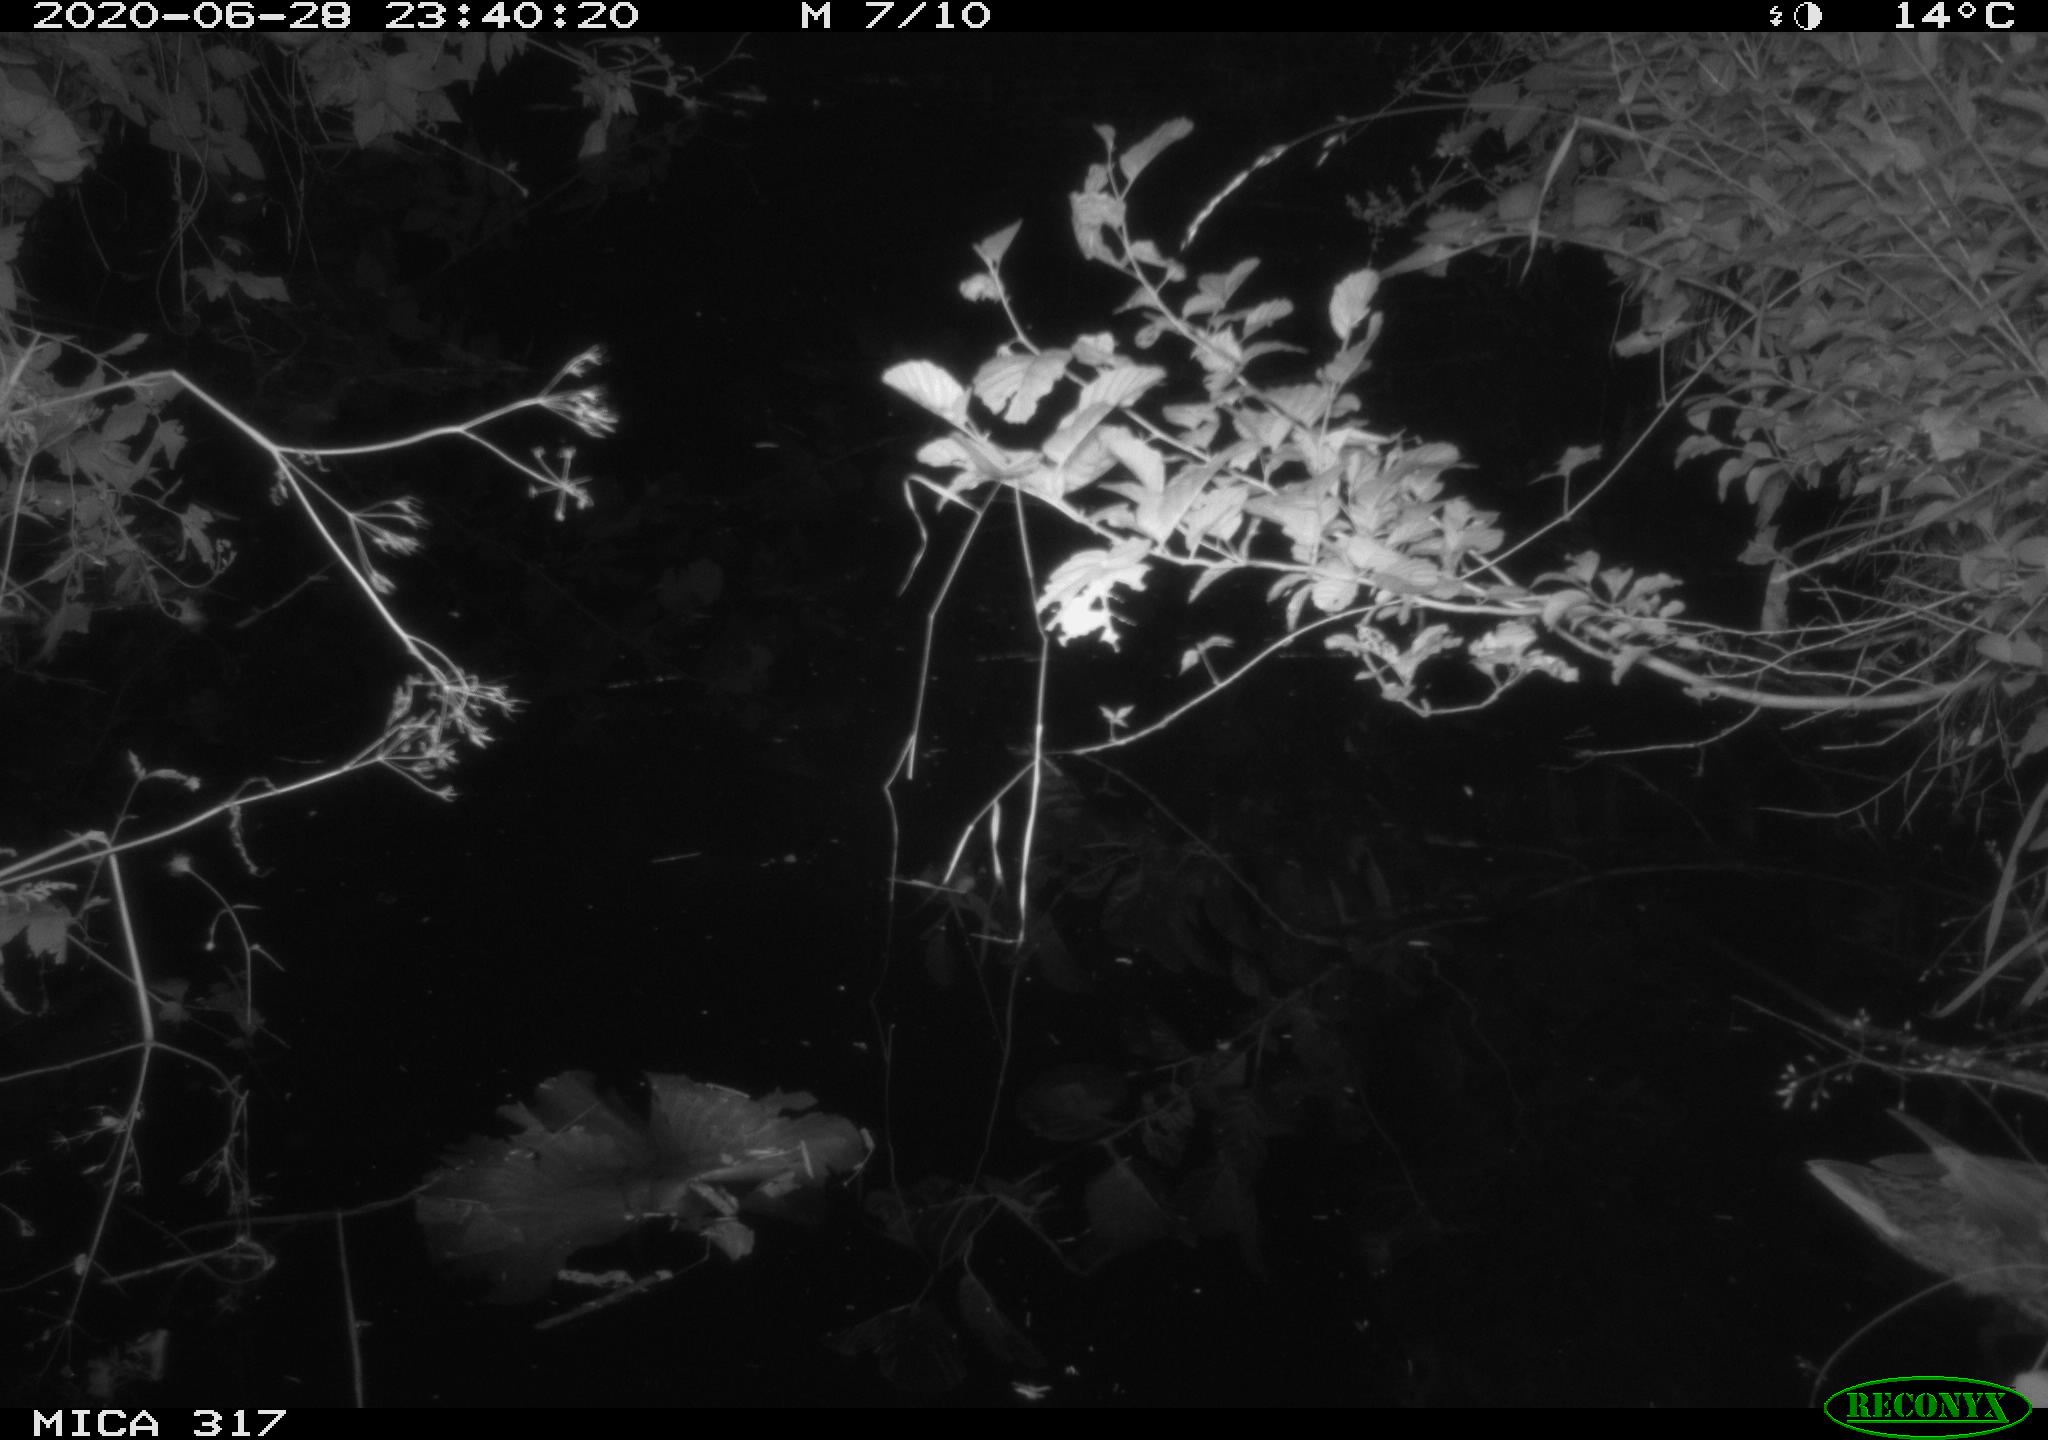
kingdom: Animalia
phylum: Chordata
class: Aves
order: Anseriformes
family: Anatidae
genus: Anas
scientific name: Anas platyrhynchos
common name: Mallard
